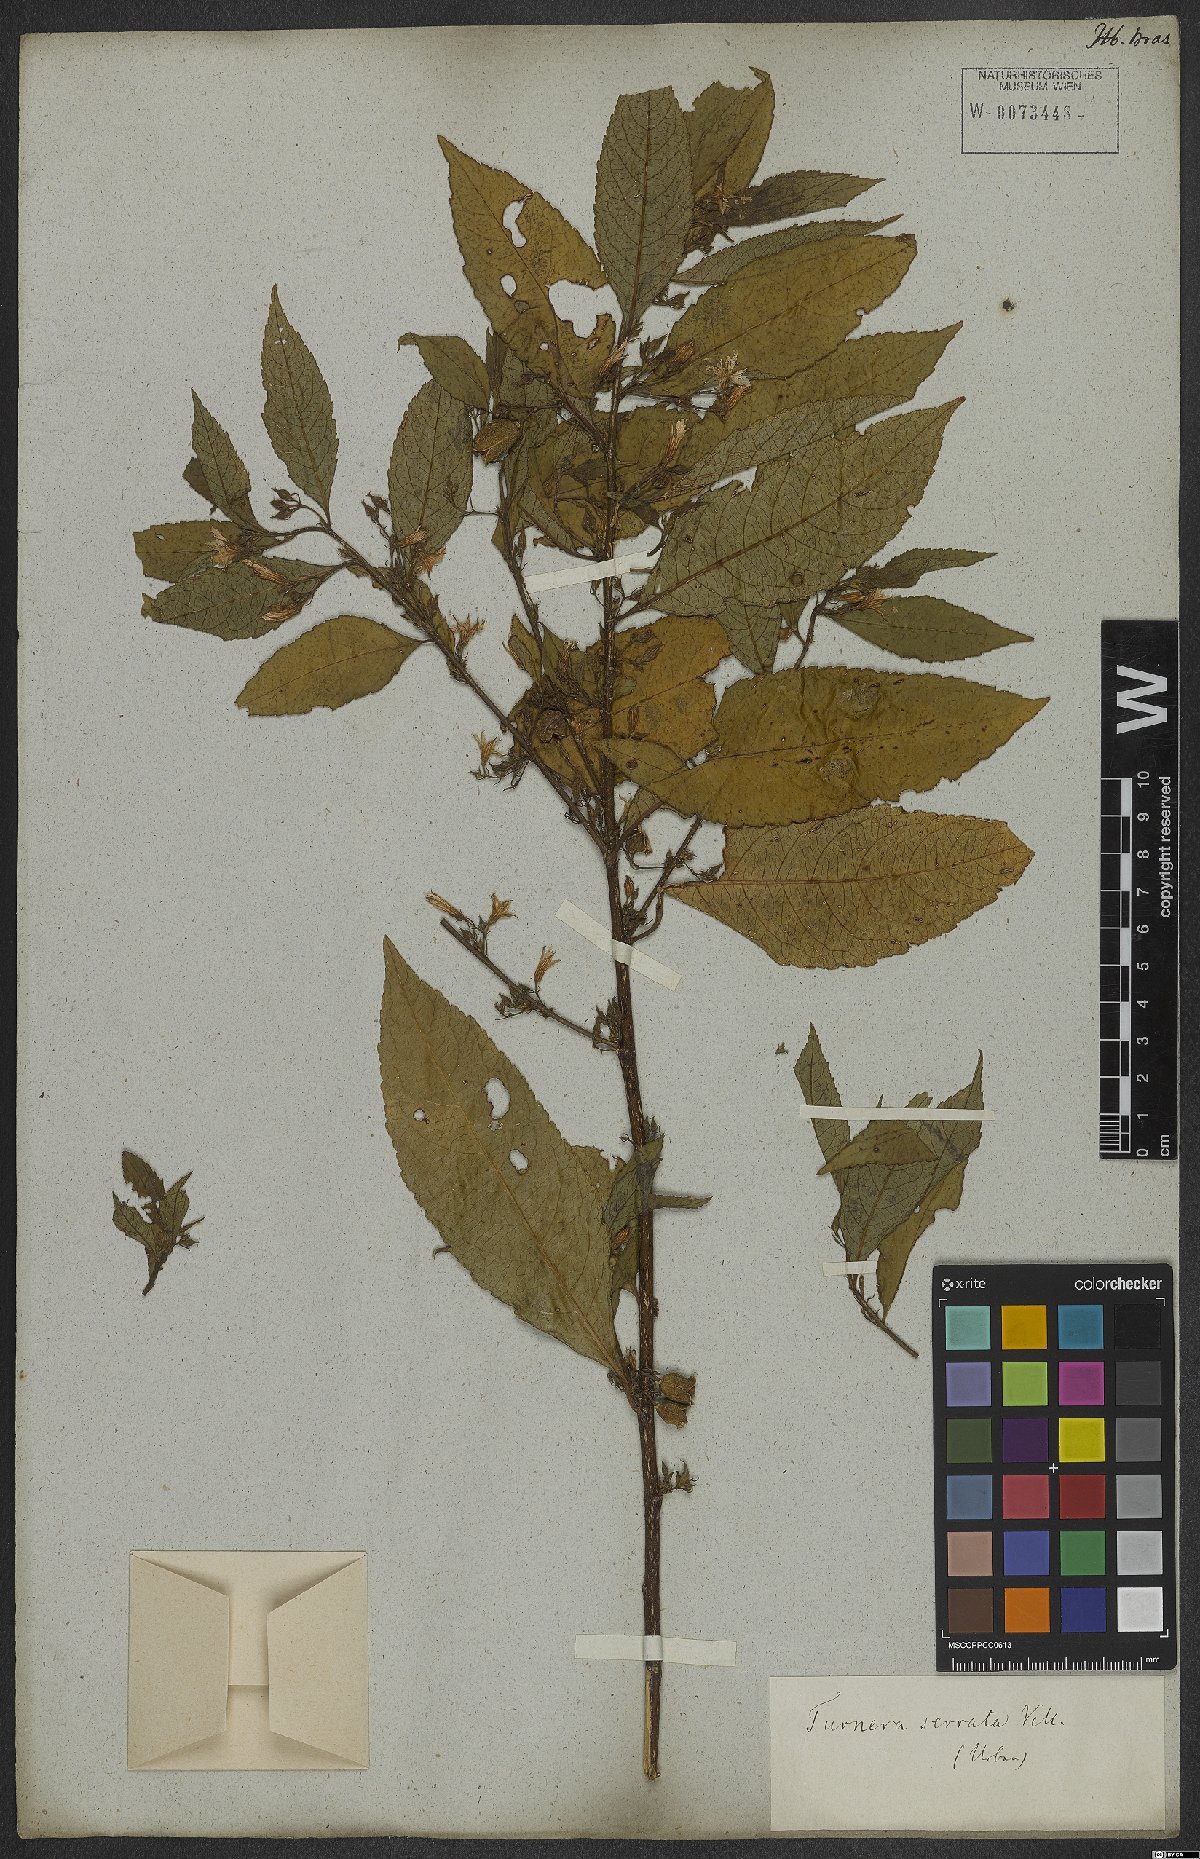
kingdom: Plantae
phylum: Tracheophyta
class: Magnoliopsida
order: Malpighiales
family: Turneraceae
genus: Turnera
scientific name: Turnera serrata
